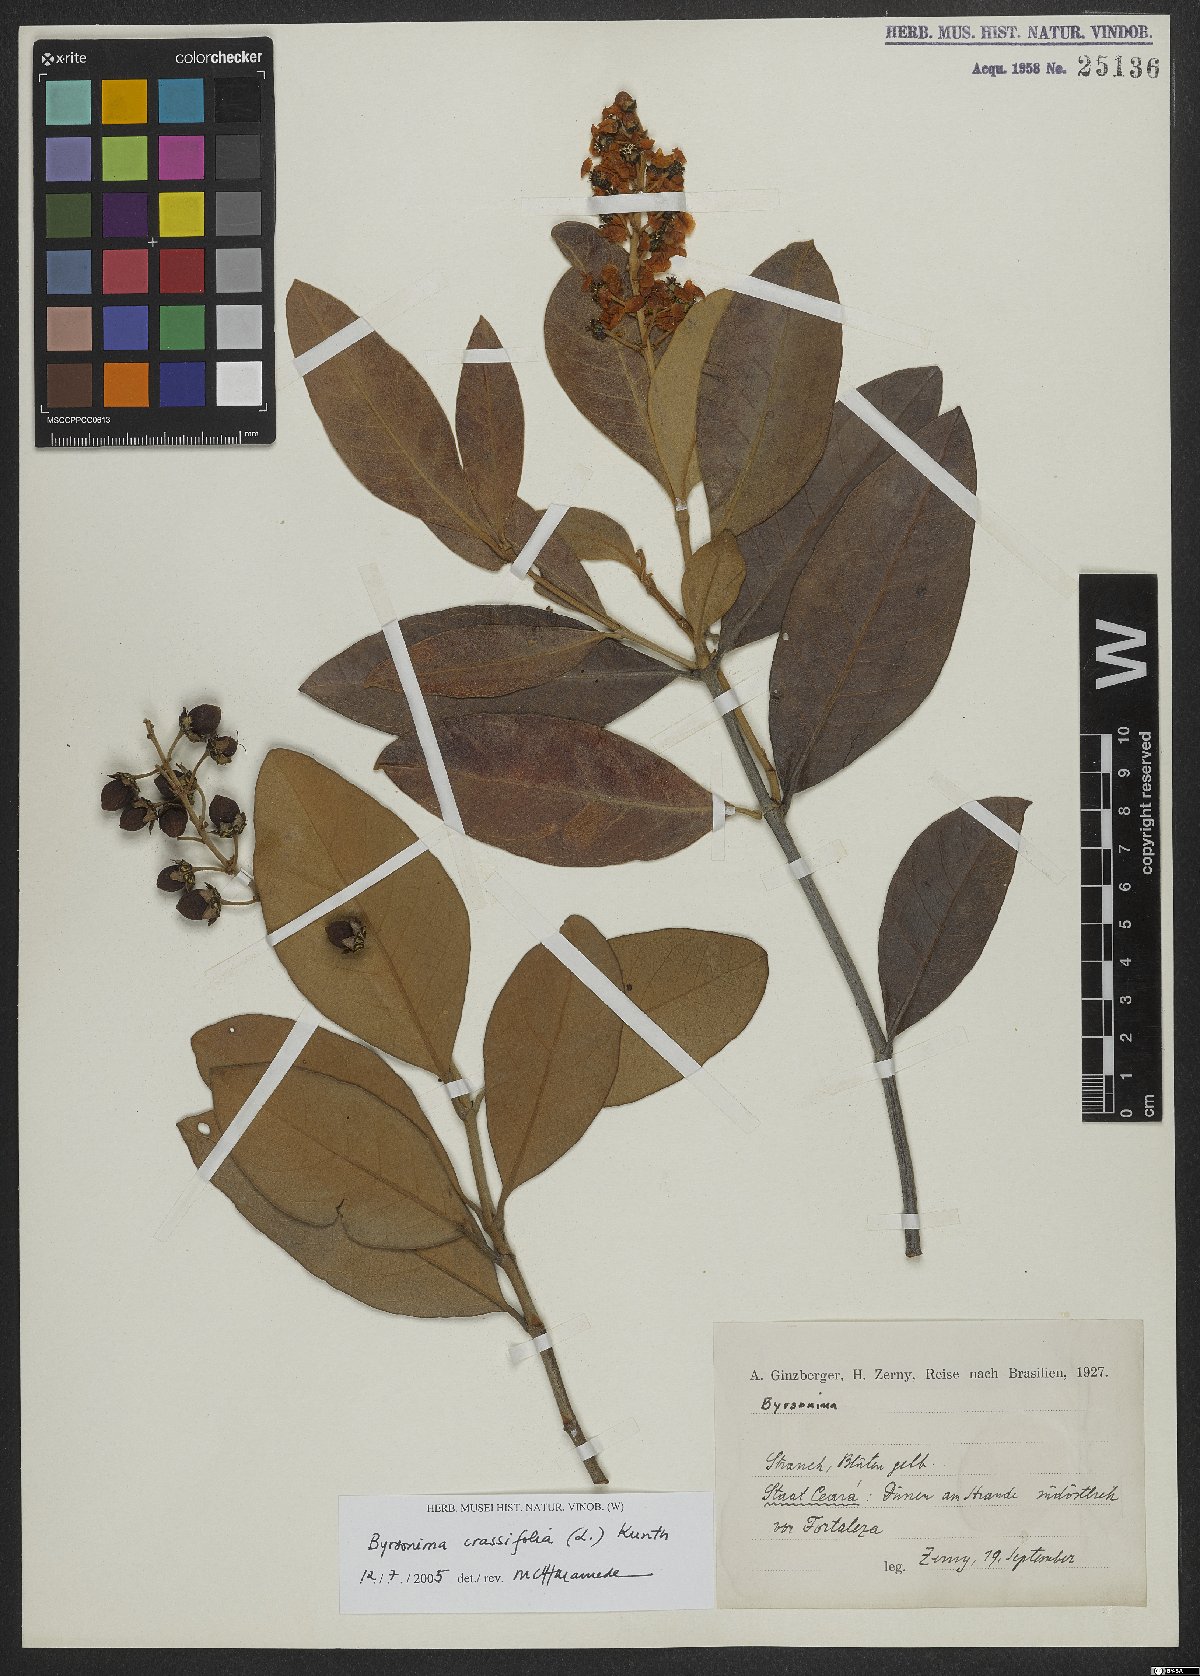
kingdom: Plantae
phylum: Tracheophyta
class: Magnoliopsida
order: Malpighiales
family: Malpighiaceae
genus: Byrsonima
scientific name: Byrsonima crassifolia
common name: Golden spoon
